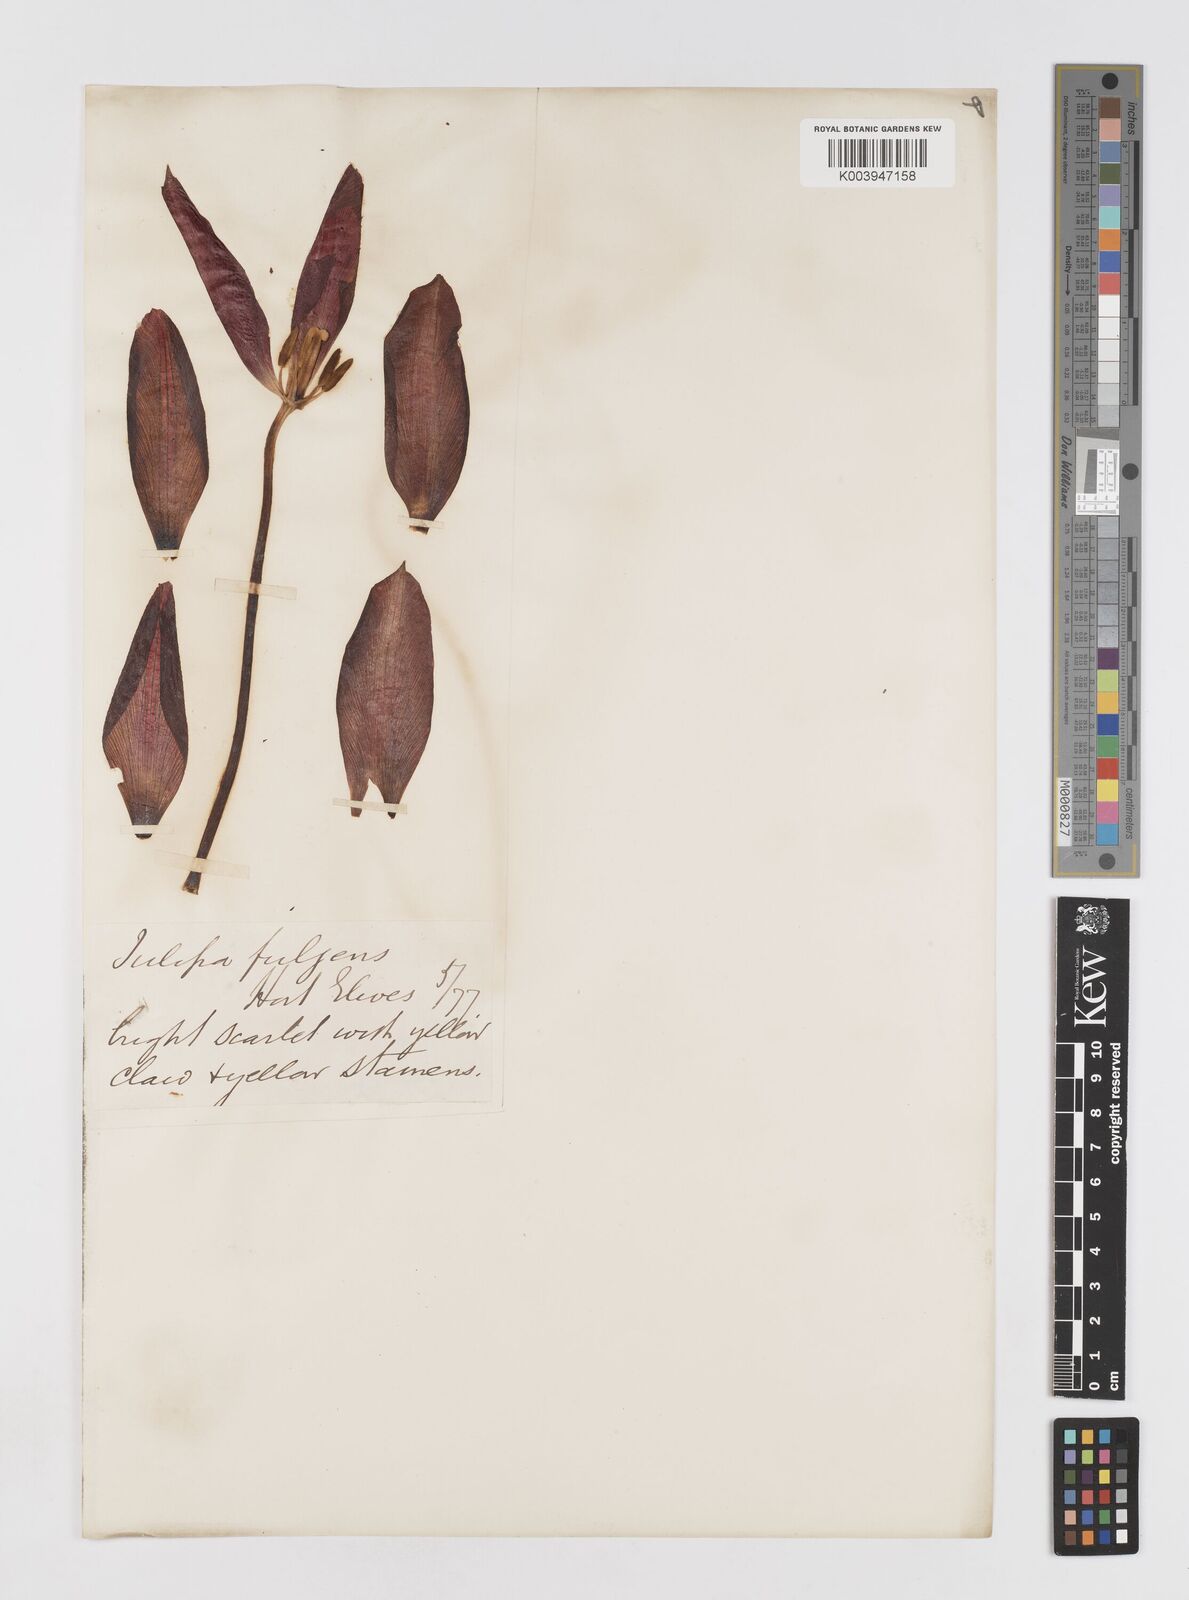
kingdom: Plantae
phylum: Tracheophyta
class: Liliopsida
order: Liliales
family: Liliaceae
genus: Tulipa
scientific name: Tulipa gesneriana
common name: Garden tulip
